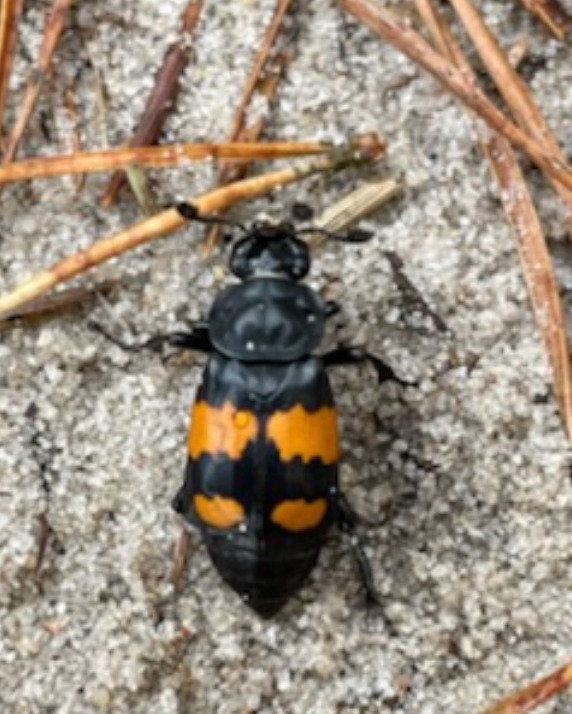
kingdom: Animalia
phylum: Arthropoda
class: Insecta
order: Coleoptera
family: Staphylinidae
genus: Nicrophorus
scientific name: Nicrophorus vespilloides
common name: Sortkøllet ådselgraver
